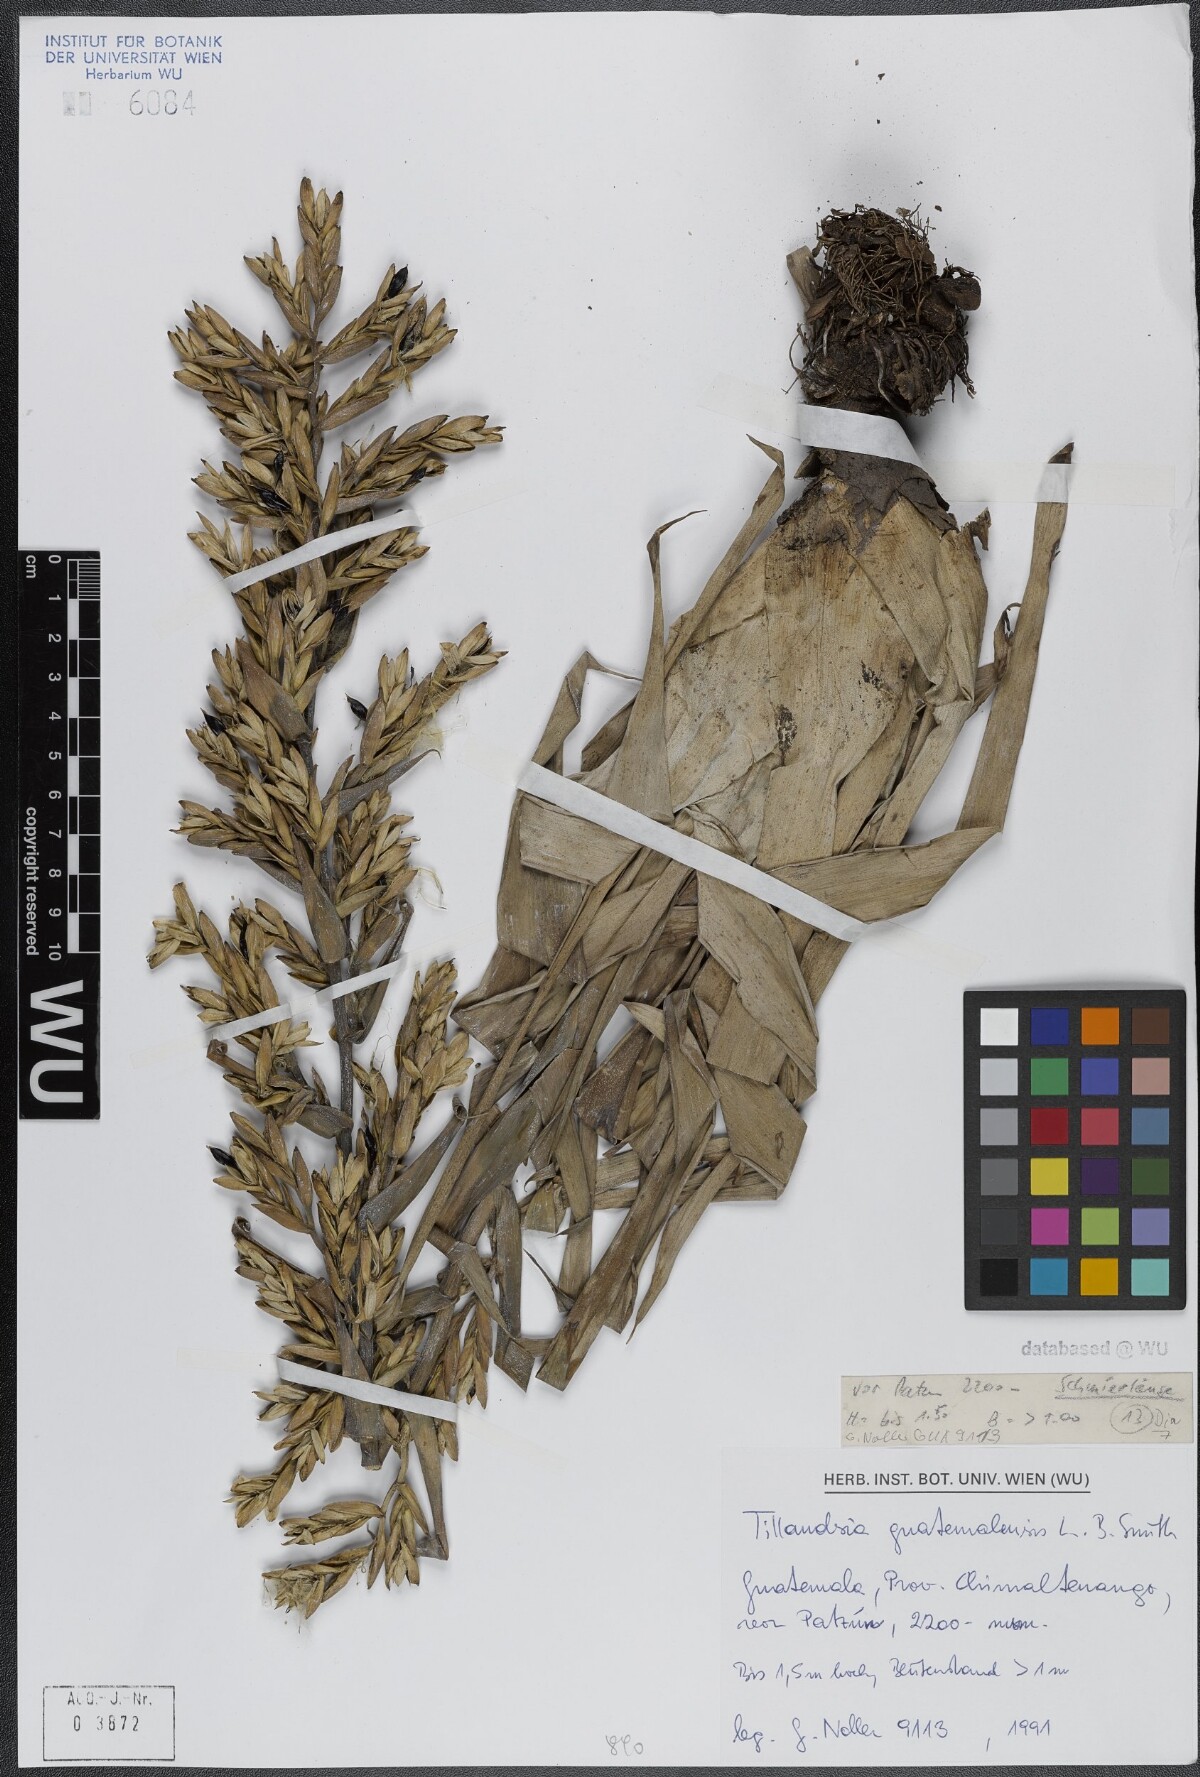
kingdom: Plantae
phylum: Tracheophyta
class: Liliopsida
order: Poales
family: Bromeliaceae
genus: Tillandsia
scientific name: Tillandsia guatemalensis
